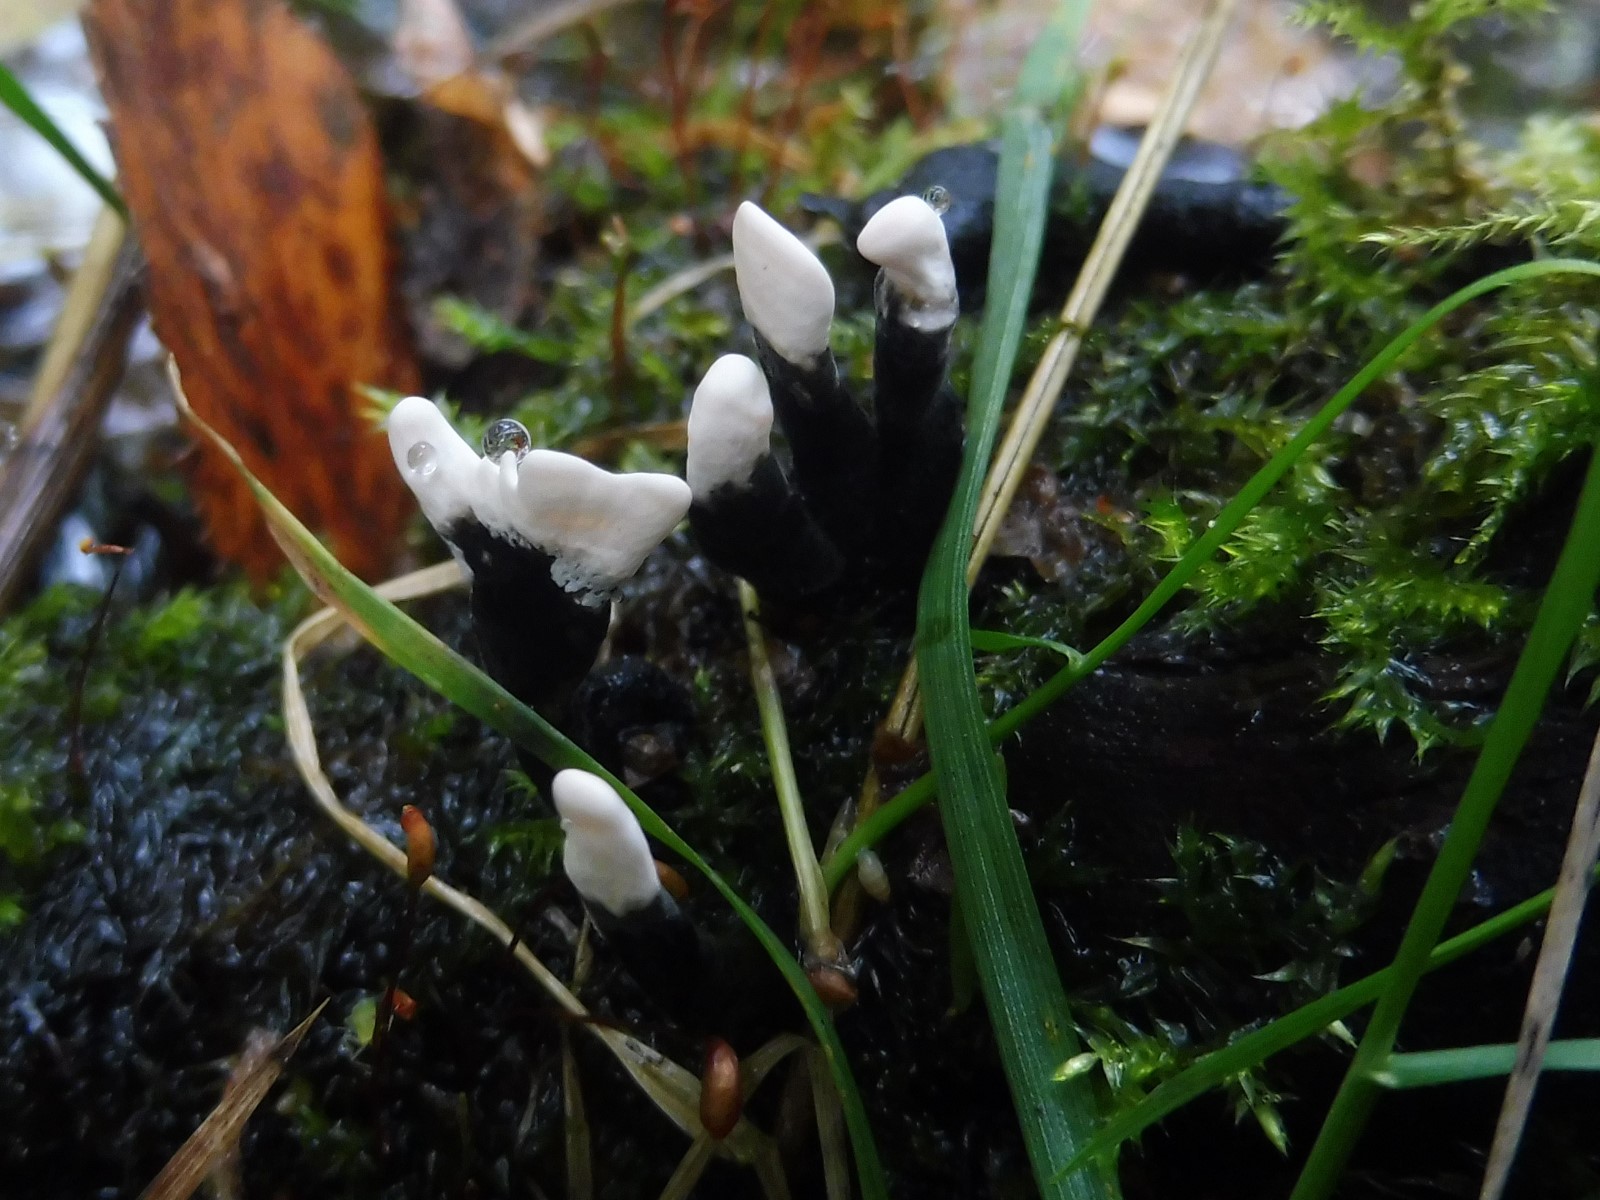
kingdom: Fungi
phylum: Ascomycota
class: Sordariomycetes
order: Xylariales
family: Xylariaceae
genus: Xylaria
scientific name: Xylaria hypoxylon
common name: grenet stødsvamp
